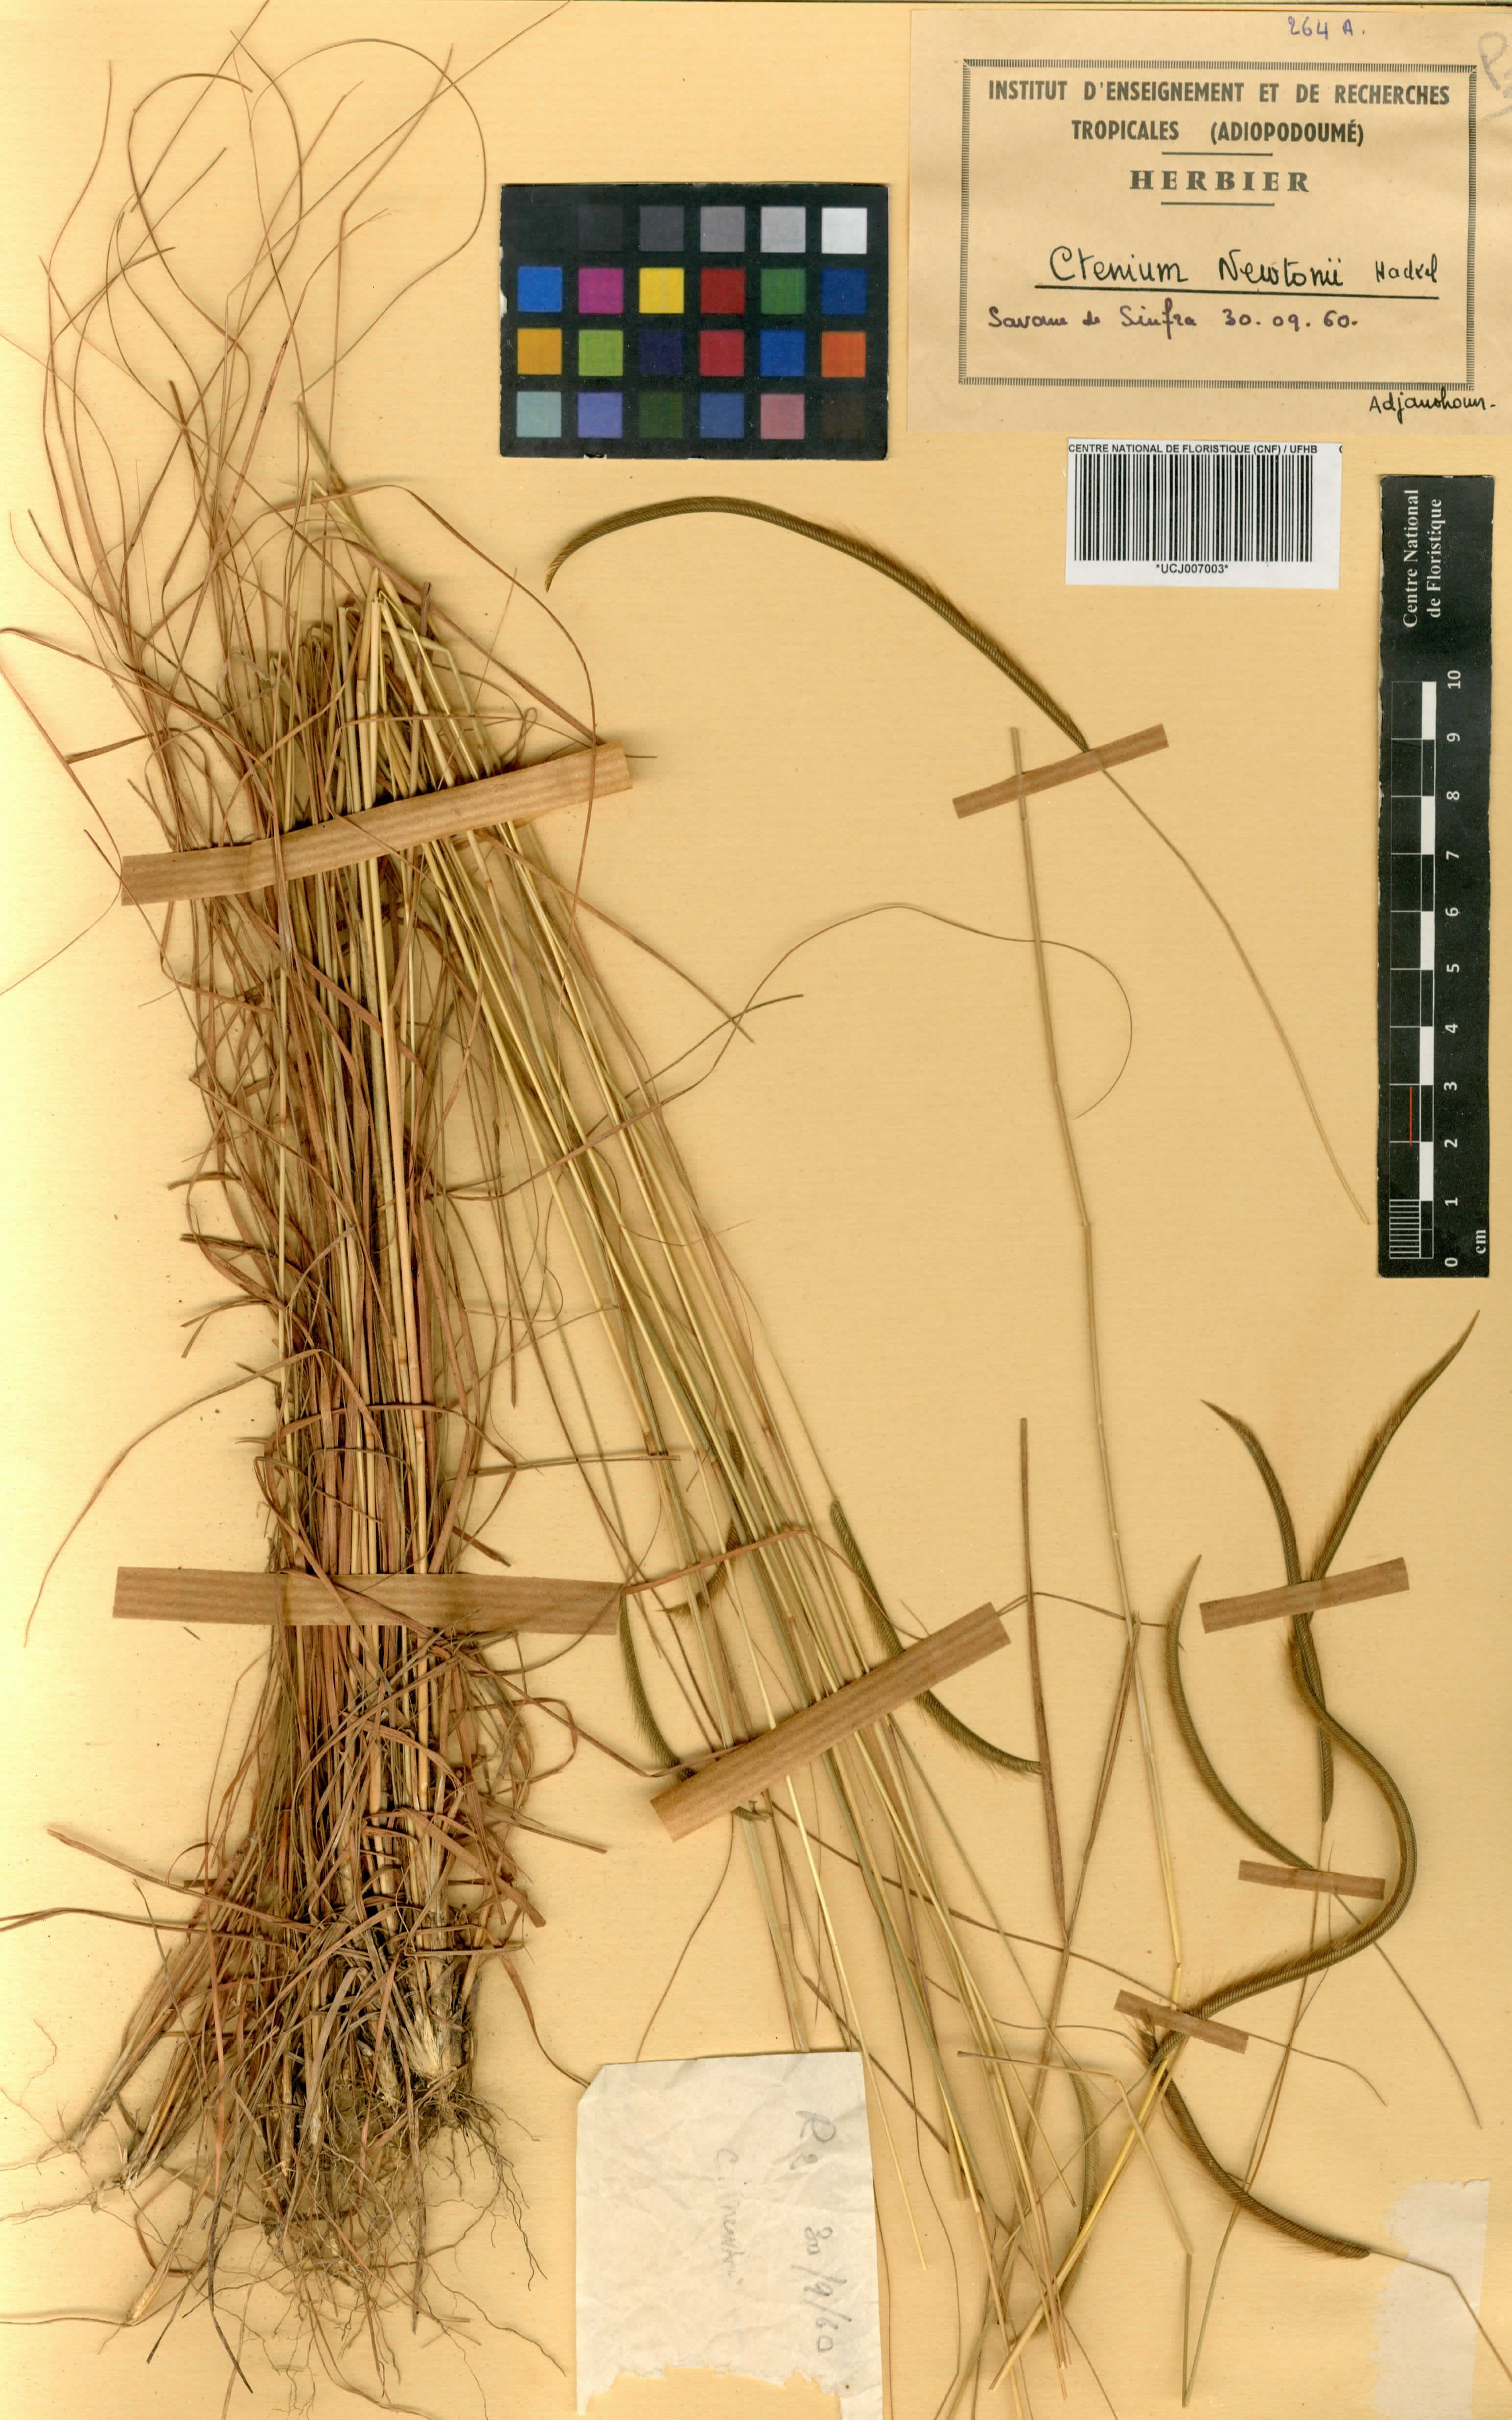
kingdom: Plantae
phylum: Tracheophyta
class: Liliopsida
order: Poales
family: Poaceae
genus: Ctenium
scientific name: Ctenium newtonii
